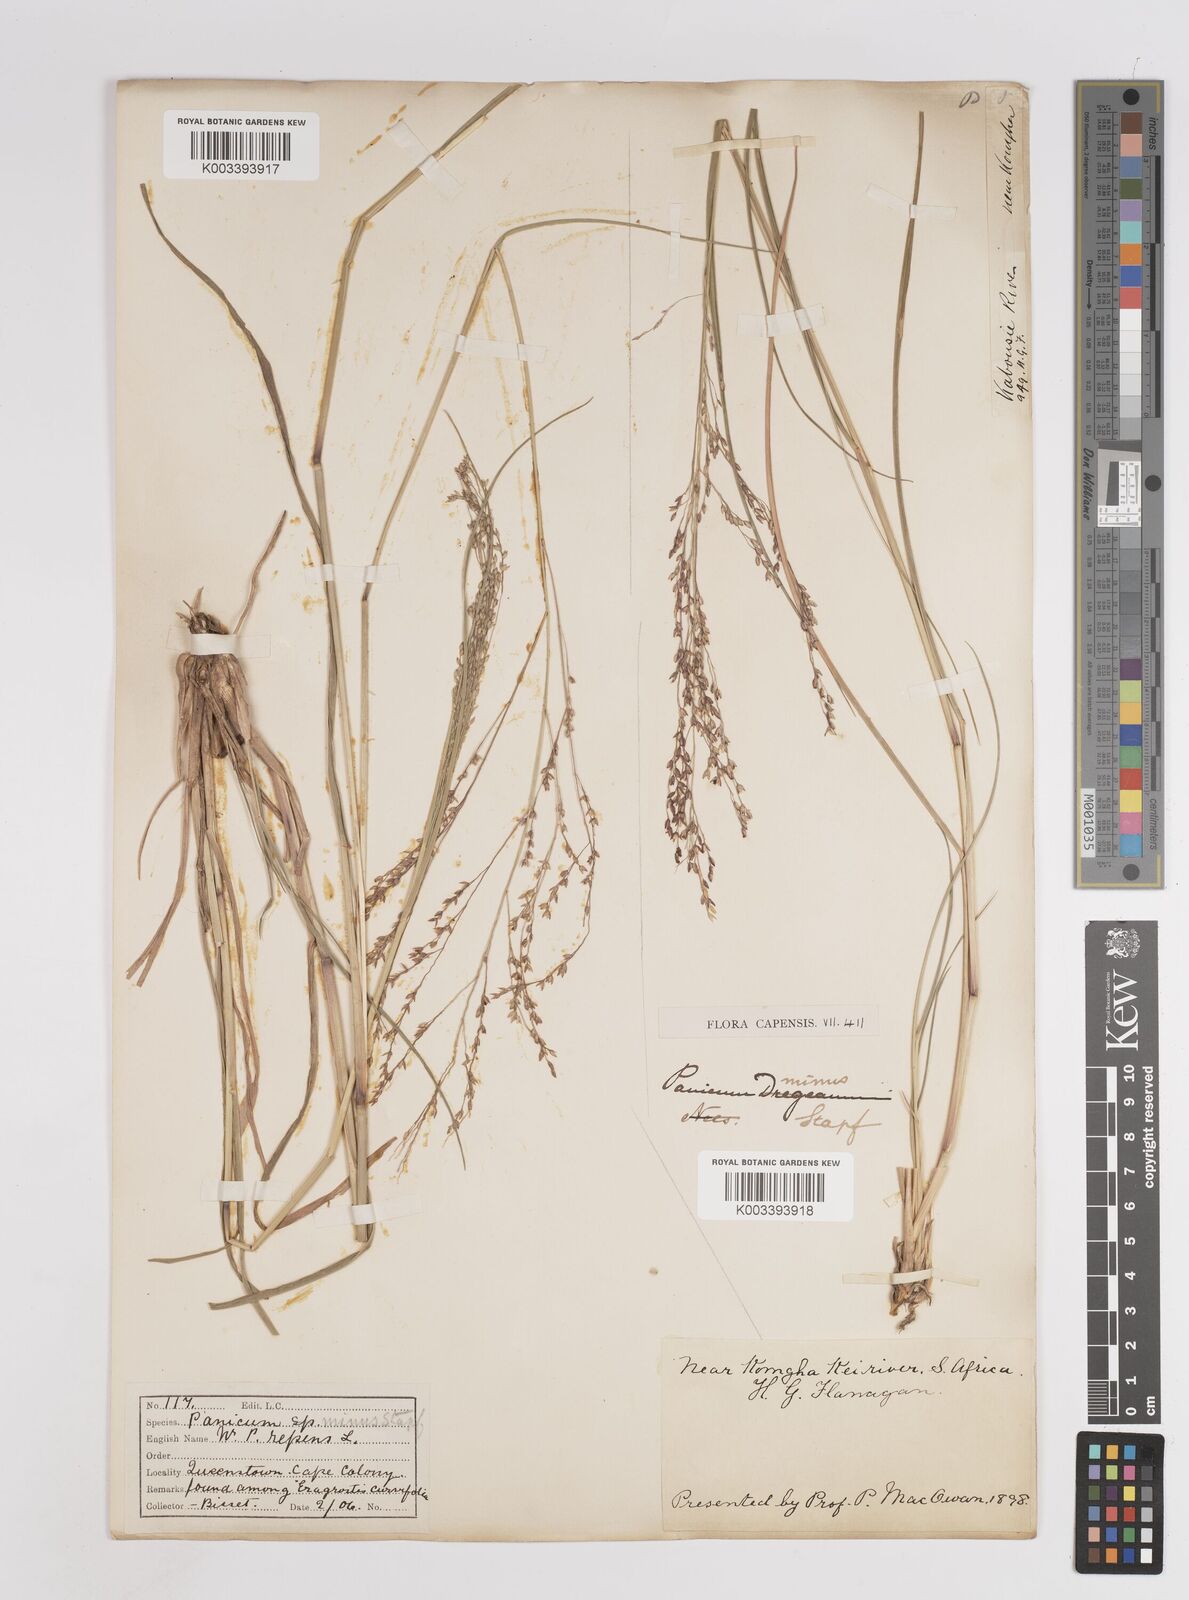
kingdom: Plantae
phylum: Tracheophyta
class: Liliopsida
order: Poales
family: Poaceae
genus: Panicum
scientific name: Panicum stapfianum
